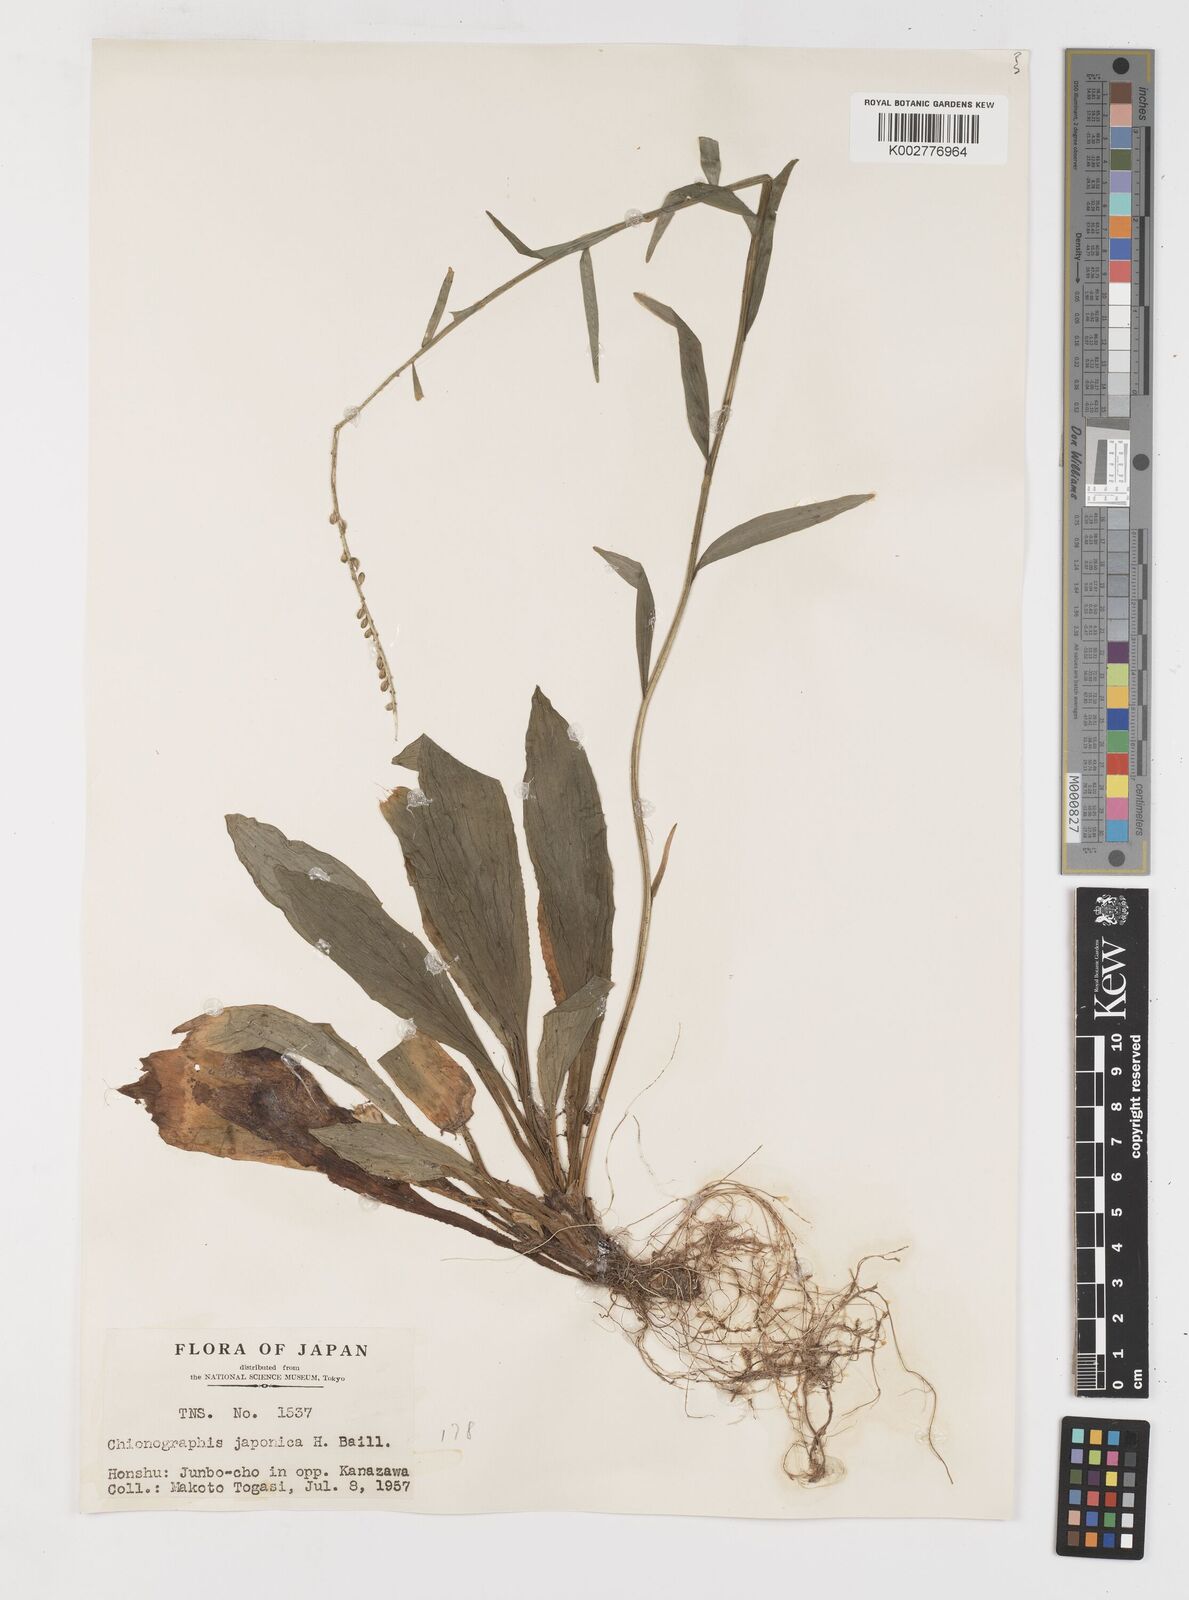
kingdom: Plantae
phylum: Tracheophyta
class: Liliopsida
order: Liliales
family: Melanthiaceae
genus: Chamaelirium
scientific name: Chamaelirium japonicum
